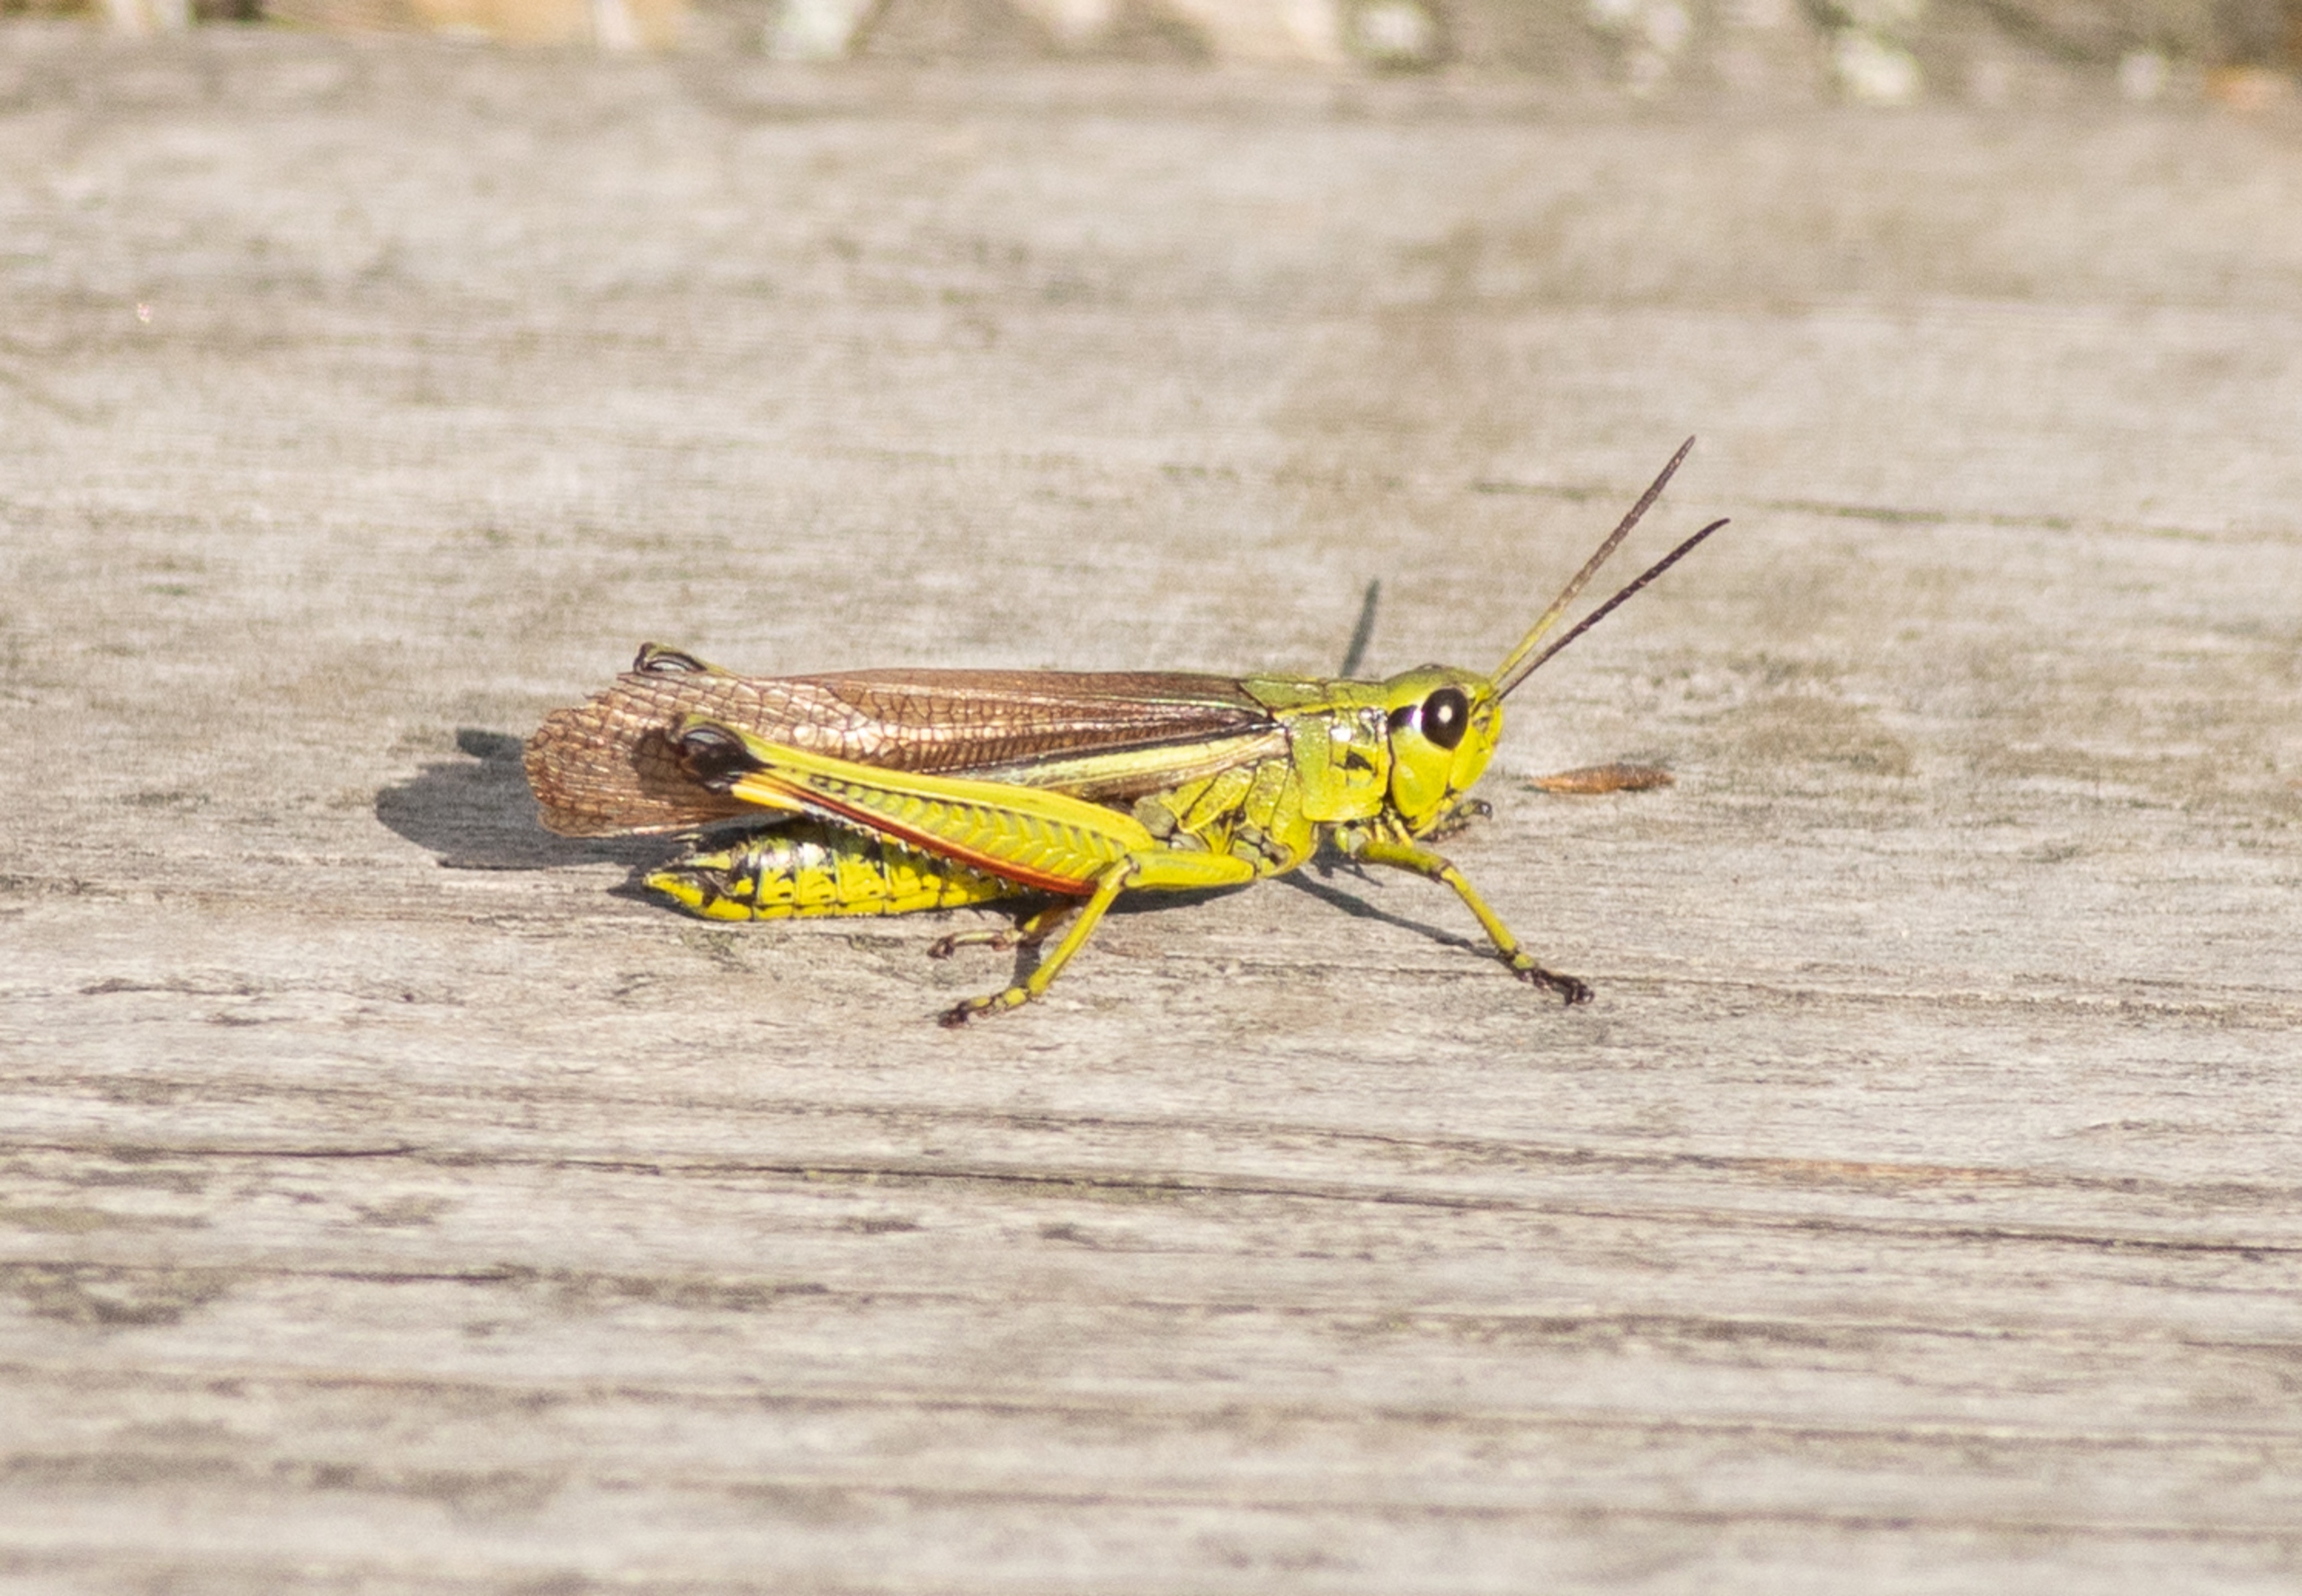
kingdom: Animalia
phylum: Arthropoda
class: Insecta
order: Orthoptera
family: Acrididae
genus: Stethophyma
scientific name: Stethophyma grossum
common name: Sumpgræshoppe
